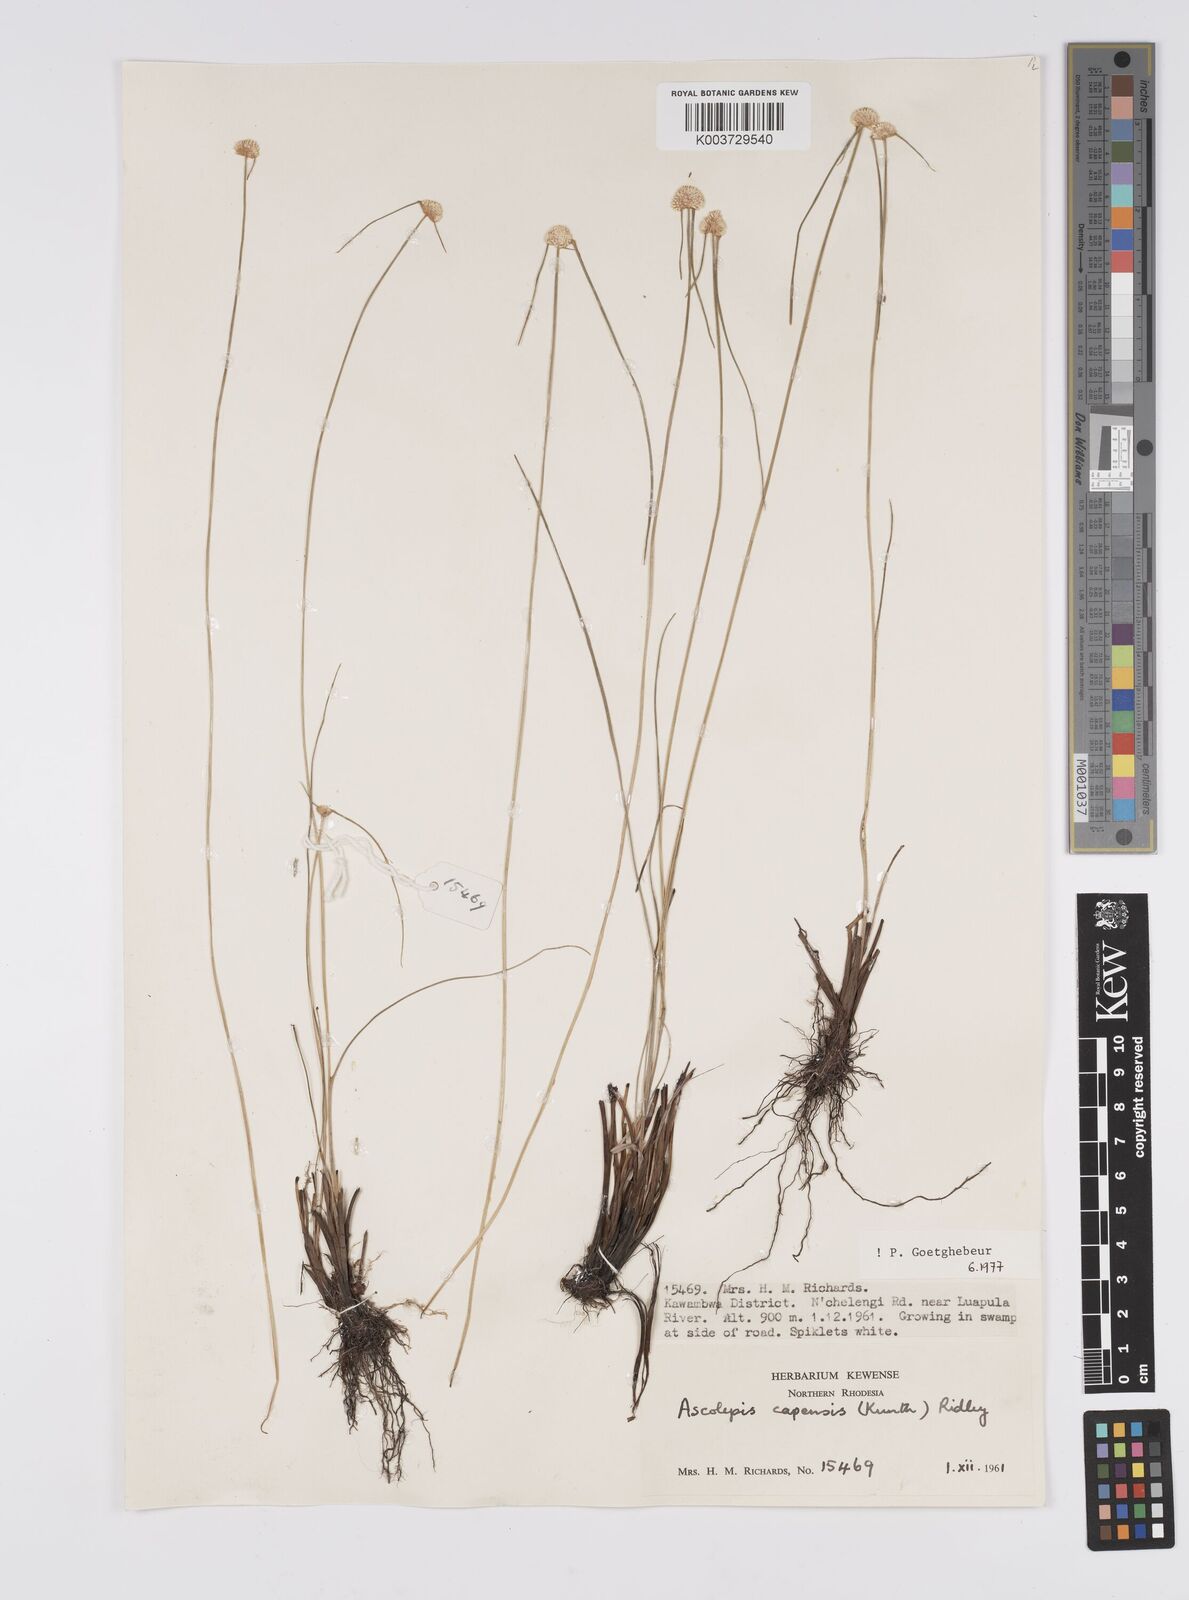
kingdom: Plantae
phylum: Tracheophyta
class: Liliopsida
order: Poales
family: Cyperaceae
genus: Cyperus
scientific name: Cyperus
